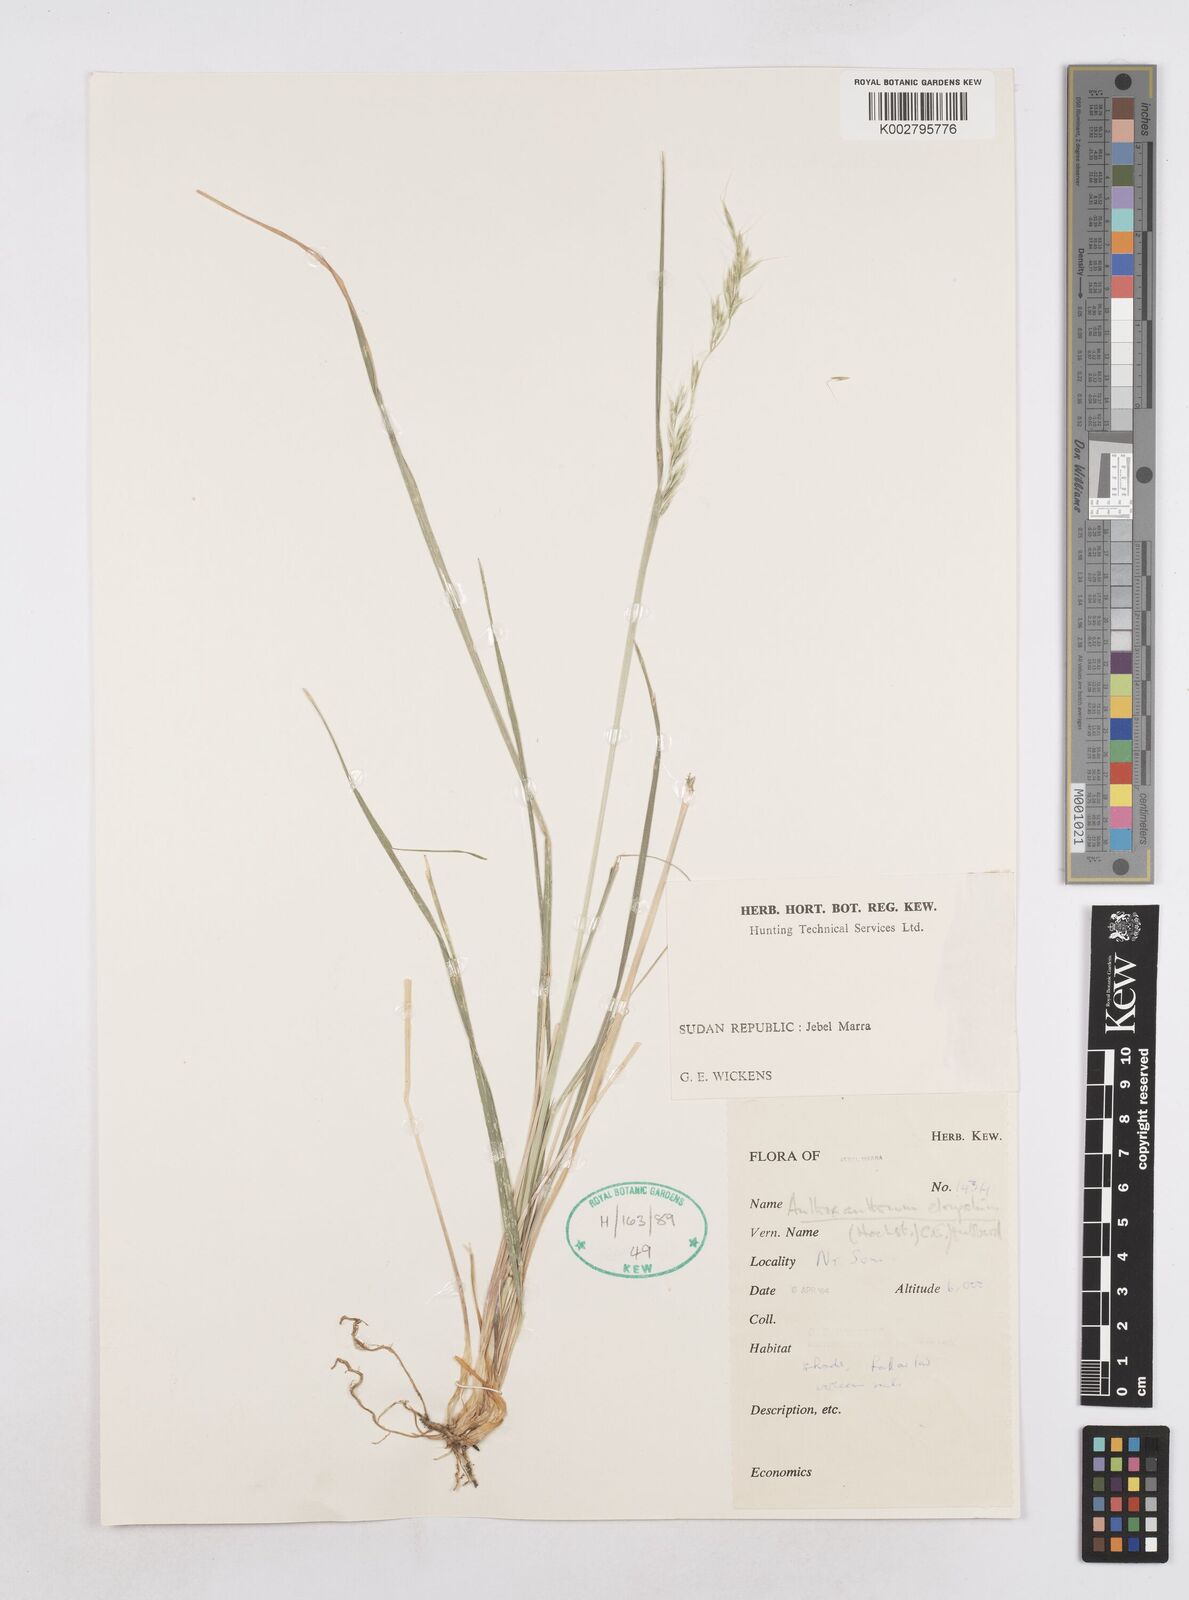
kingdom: Plantae
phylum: Tracheophyta
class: Liliopsida
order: Poales
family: Poaceae
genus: Trisetopsis
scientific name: Trisetopsis elongata
